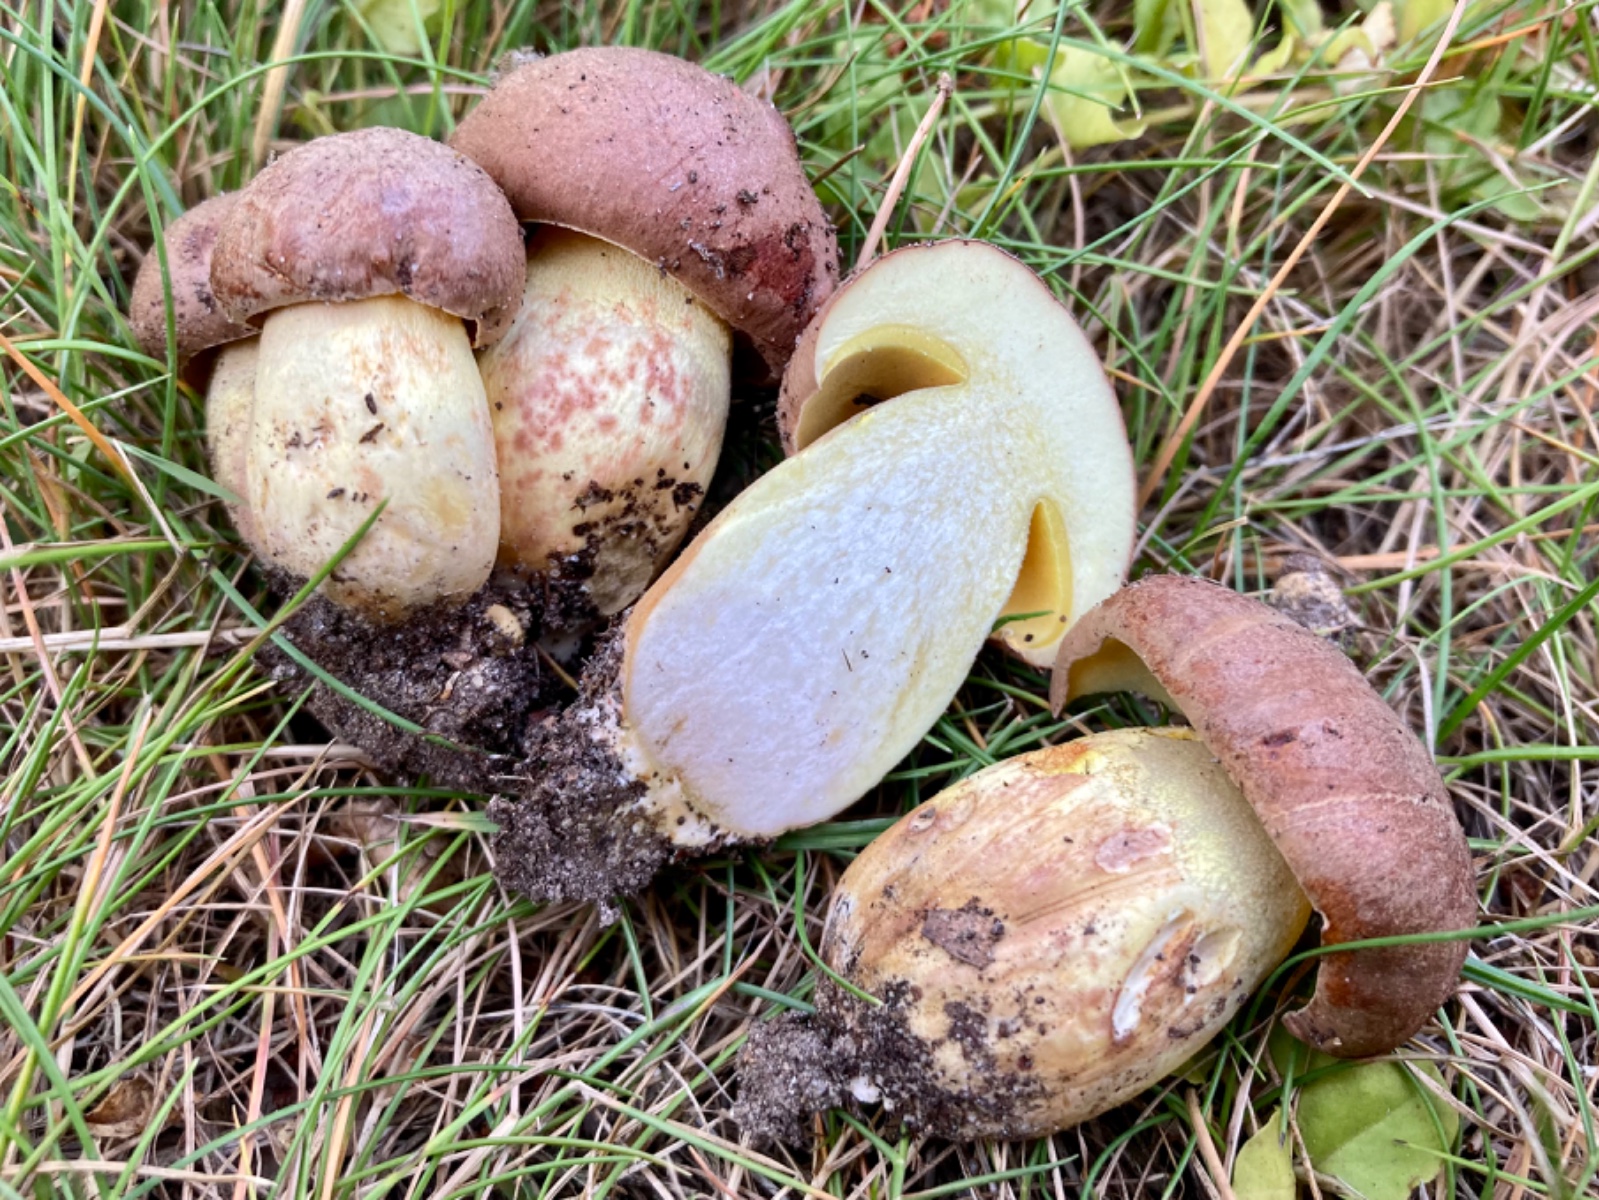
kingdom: Fungi
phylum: Basidiomycota
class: Agaricomycetes
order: Boletales
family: Boletaceae
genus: Butyriboletus
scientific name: Butyriboletus appendiculatus
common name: tenstokket rørhat
